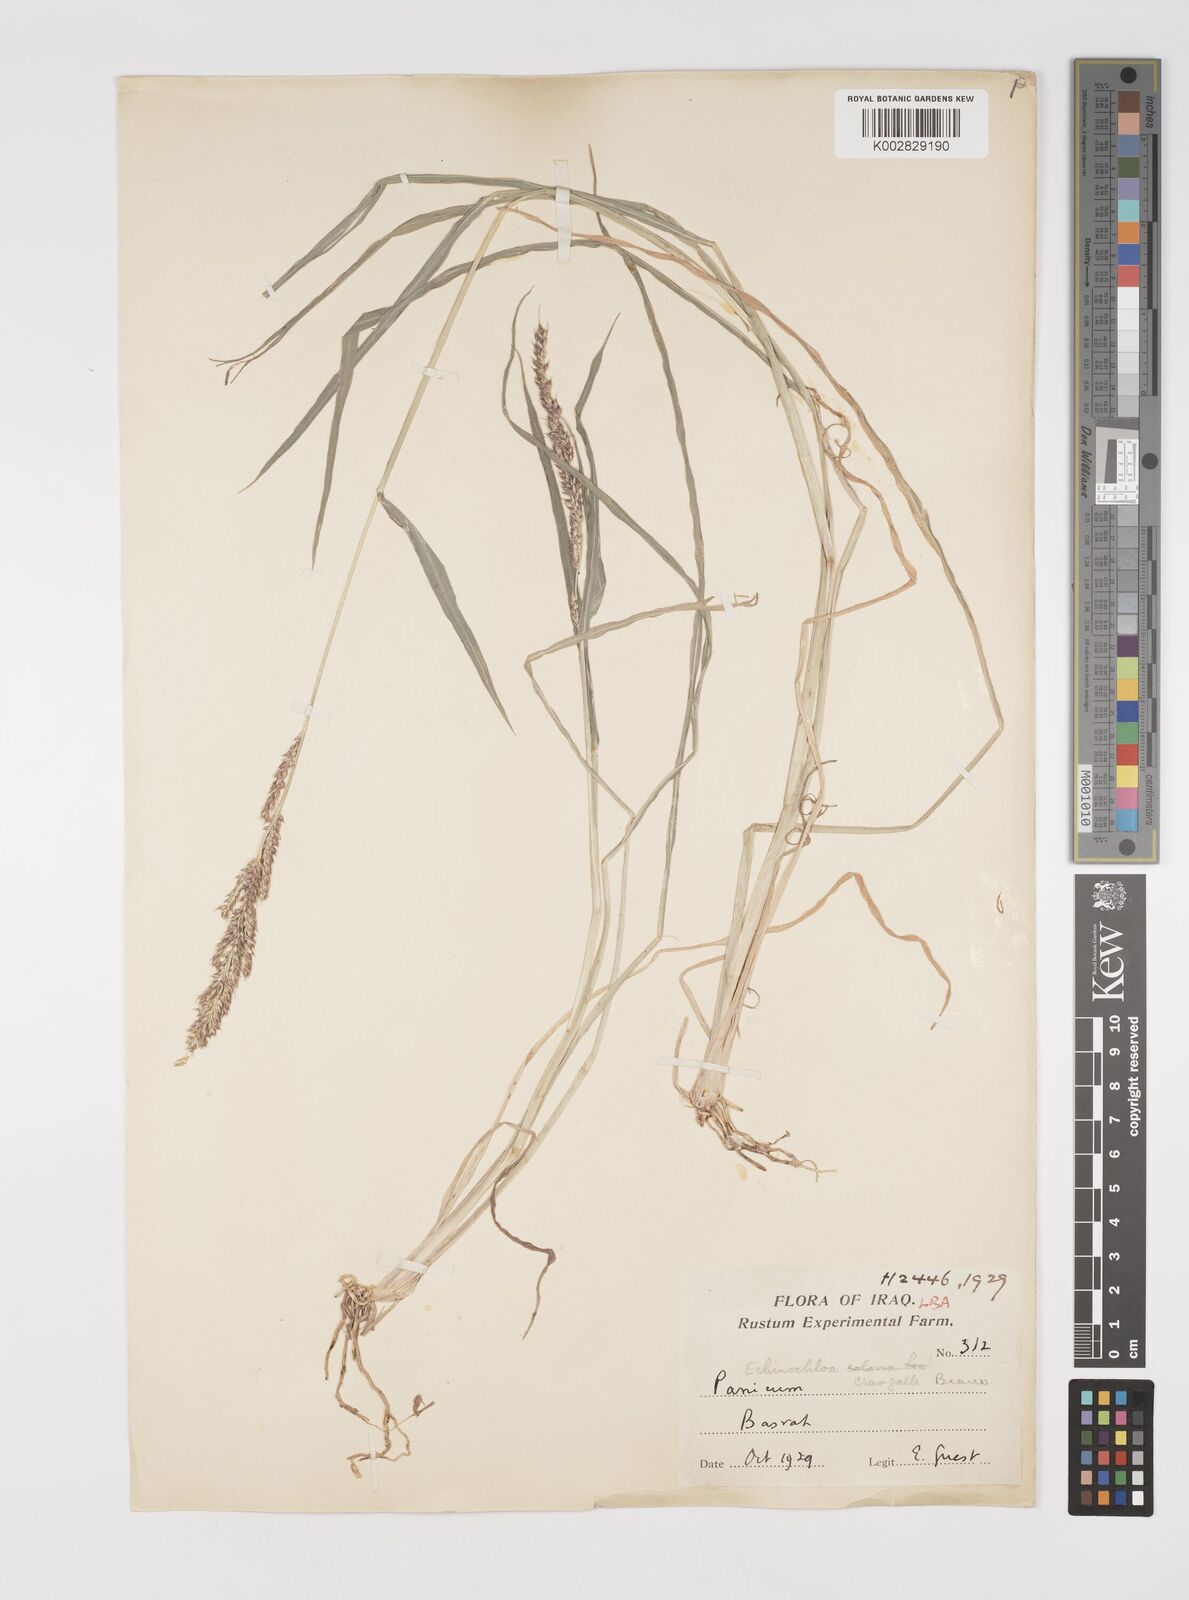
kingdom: Plantae
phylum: Tracheophyta
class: Liliopsida
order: Poales
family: Poaceae
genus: Echinochloa
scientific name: Echinochloa crus-galli
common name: Cockspur
